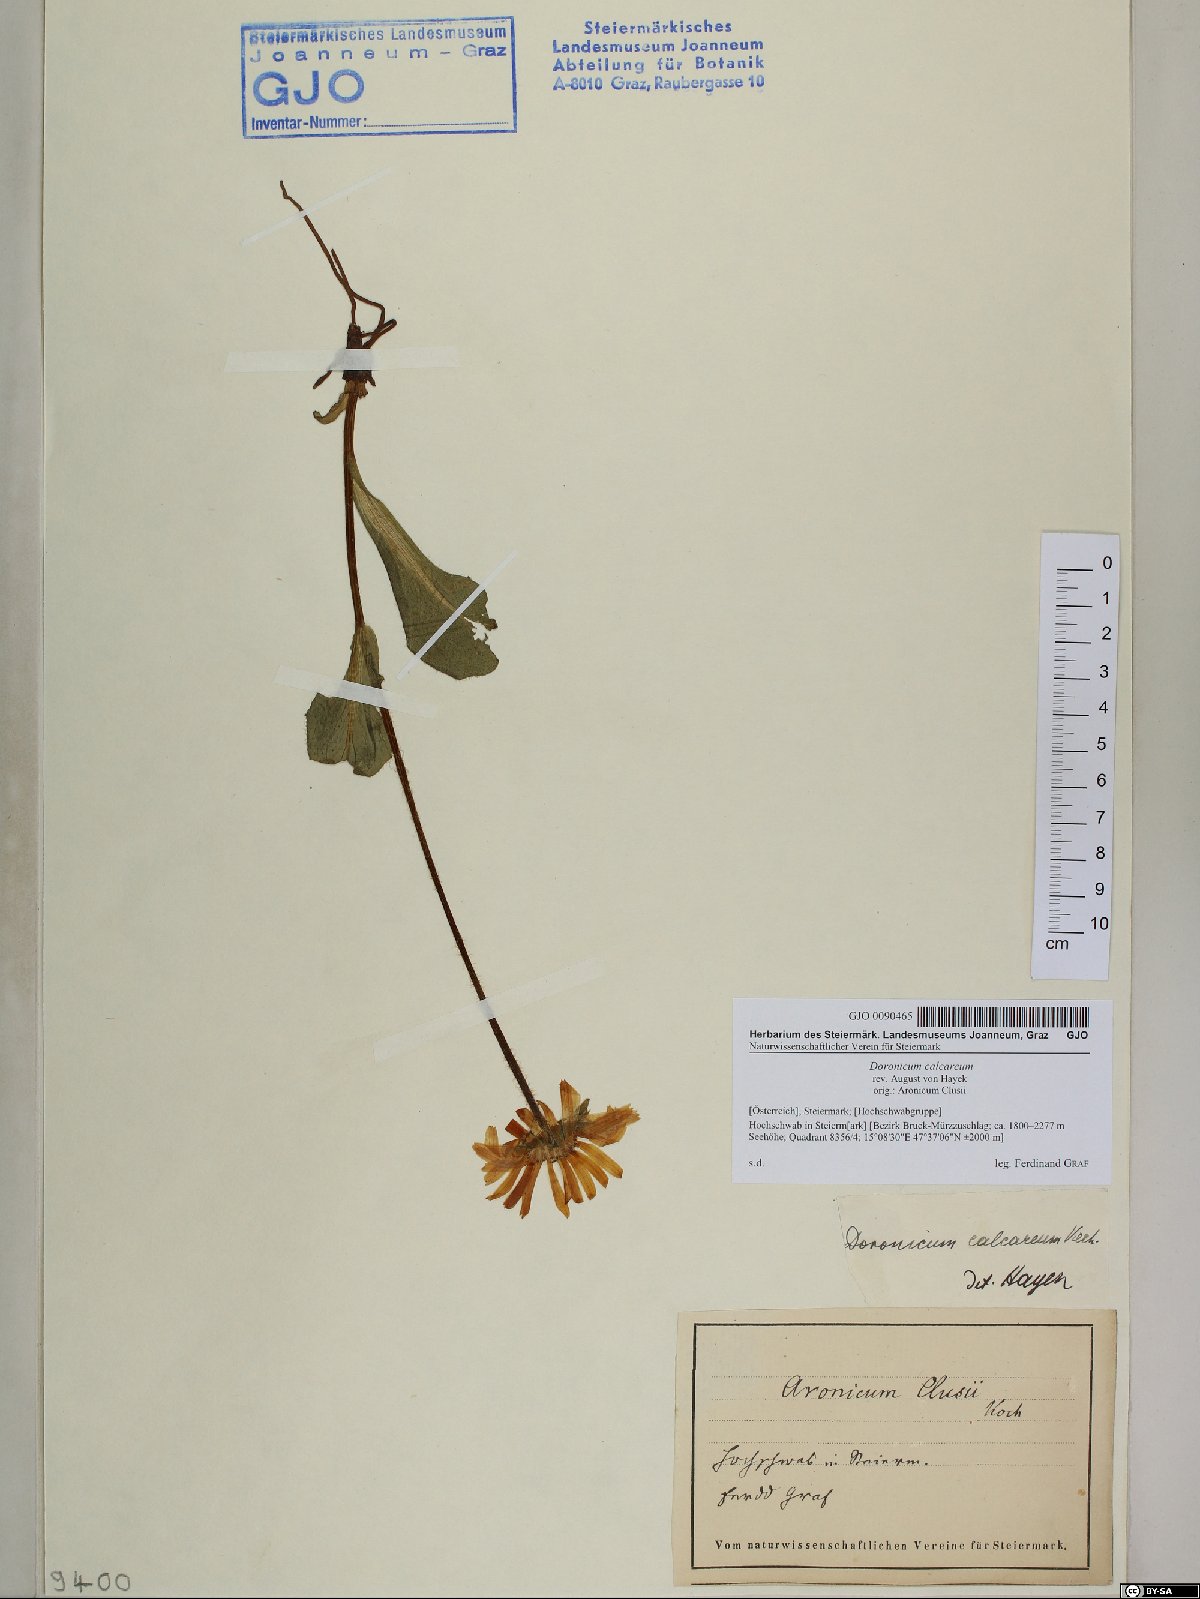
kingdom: Plantae
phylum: Tracheophyta
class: Magnoliopsida
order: Asterales
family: Asteraceae
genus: Doronicum
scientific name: Doronicum glaciale
